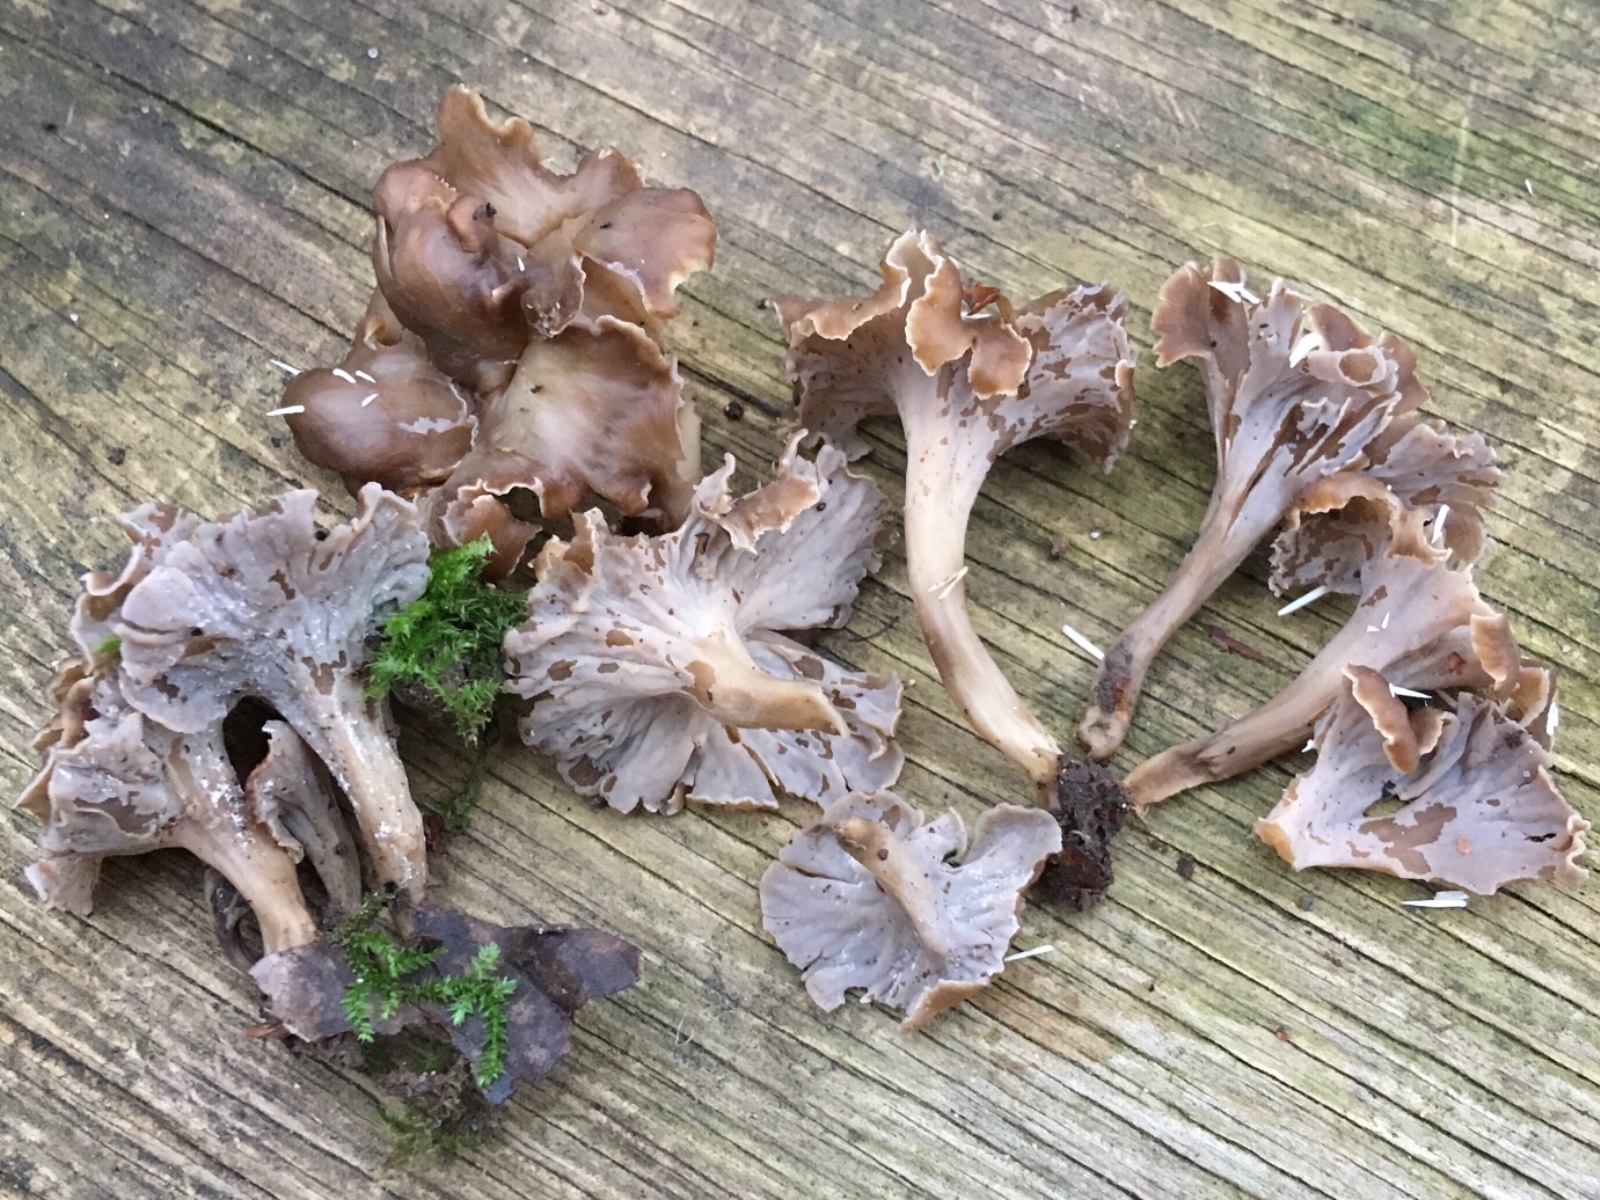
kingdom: Fungi
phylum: Basidiomycota
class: Agaricomycetes
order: Cantharellales
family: Hydnaceae
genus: Craterellus
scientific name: Craterellus undulatus
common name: liden kantarel
